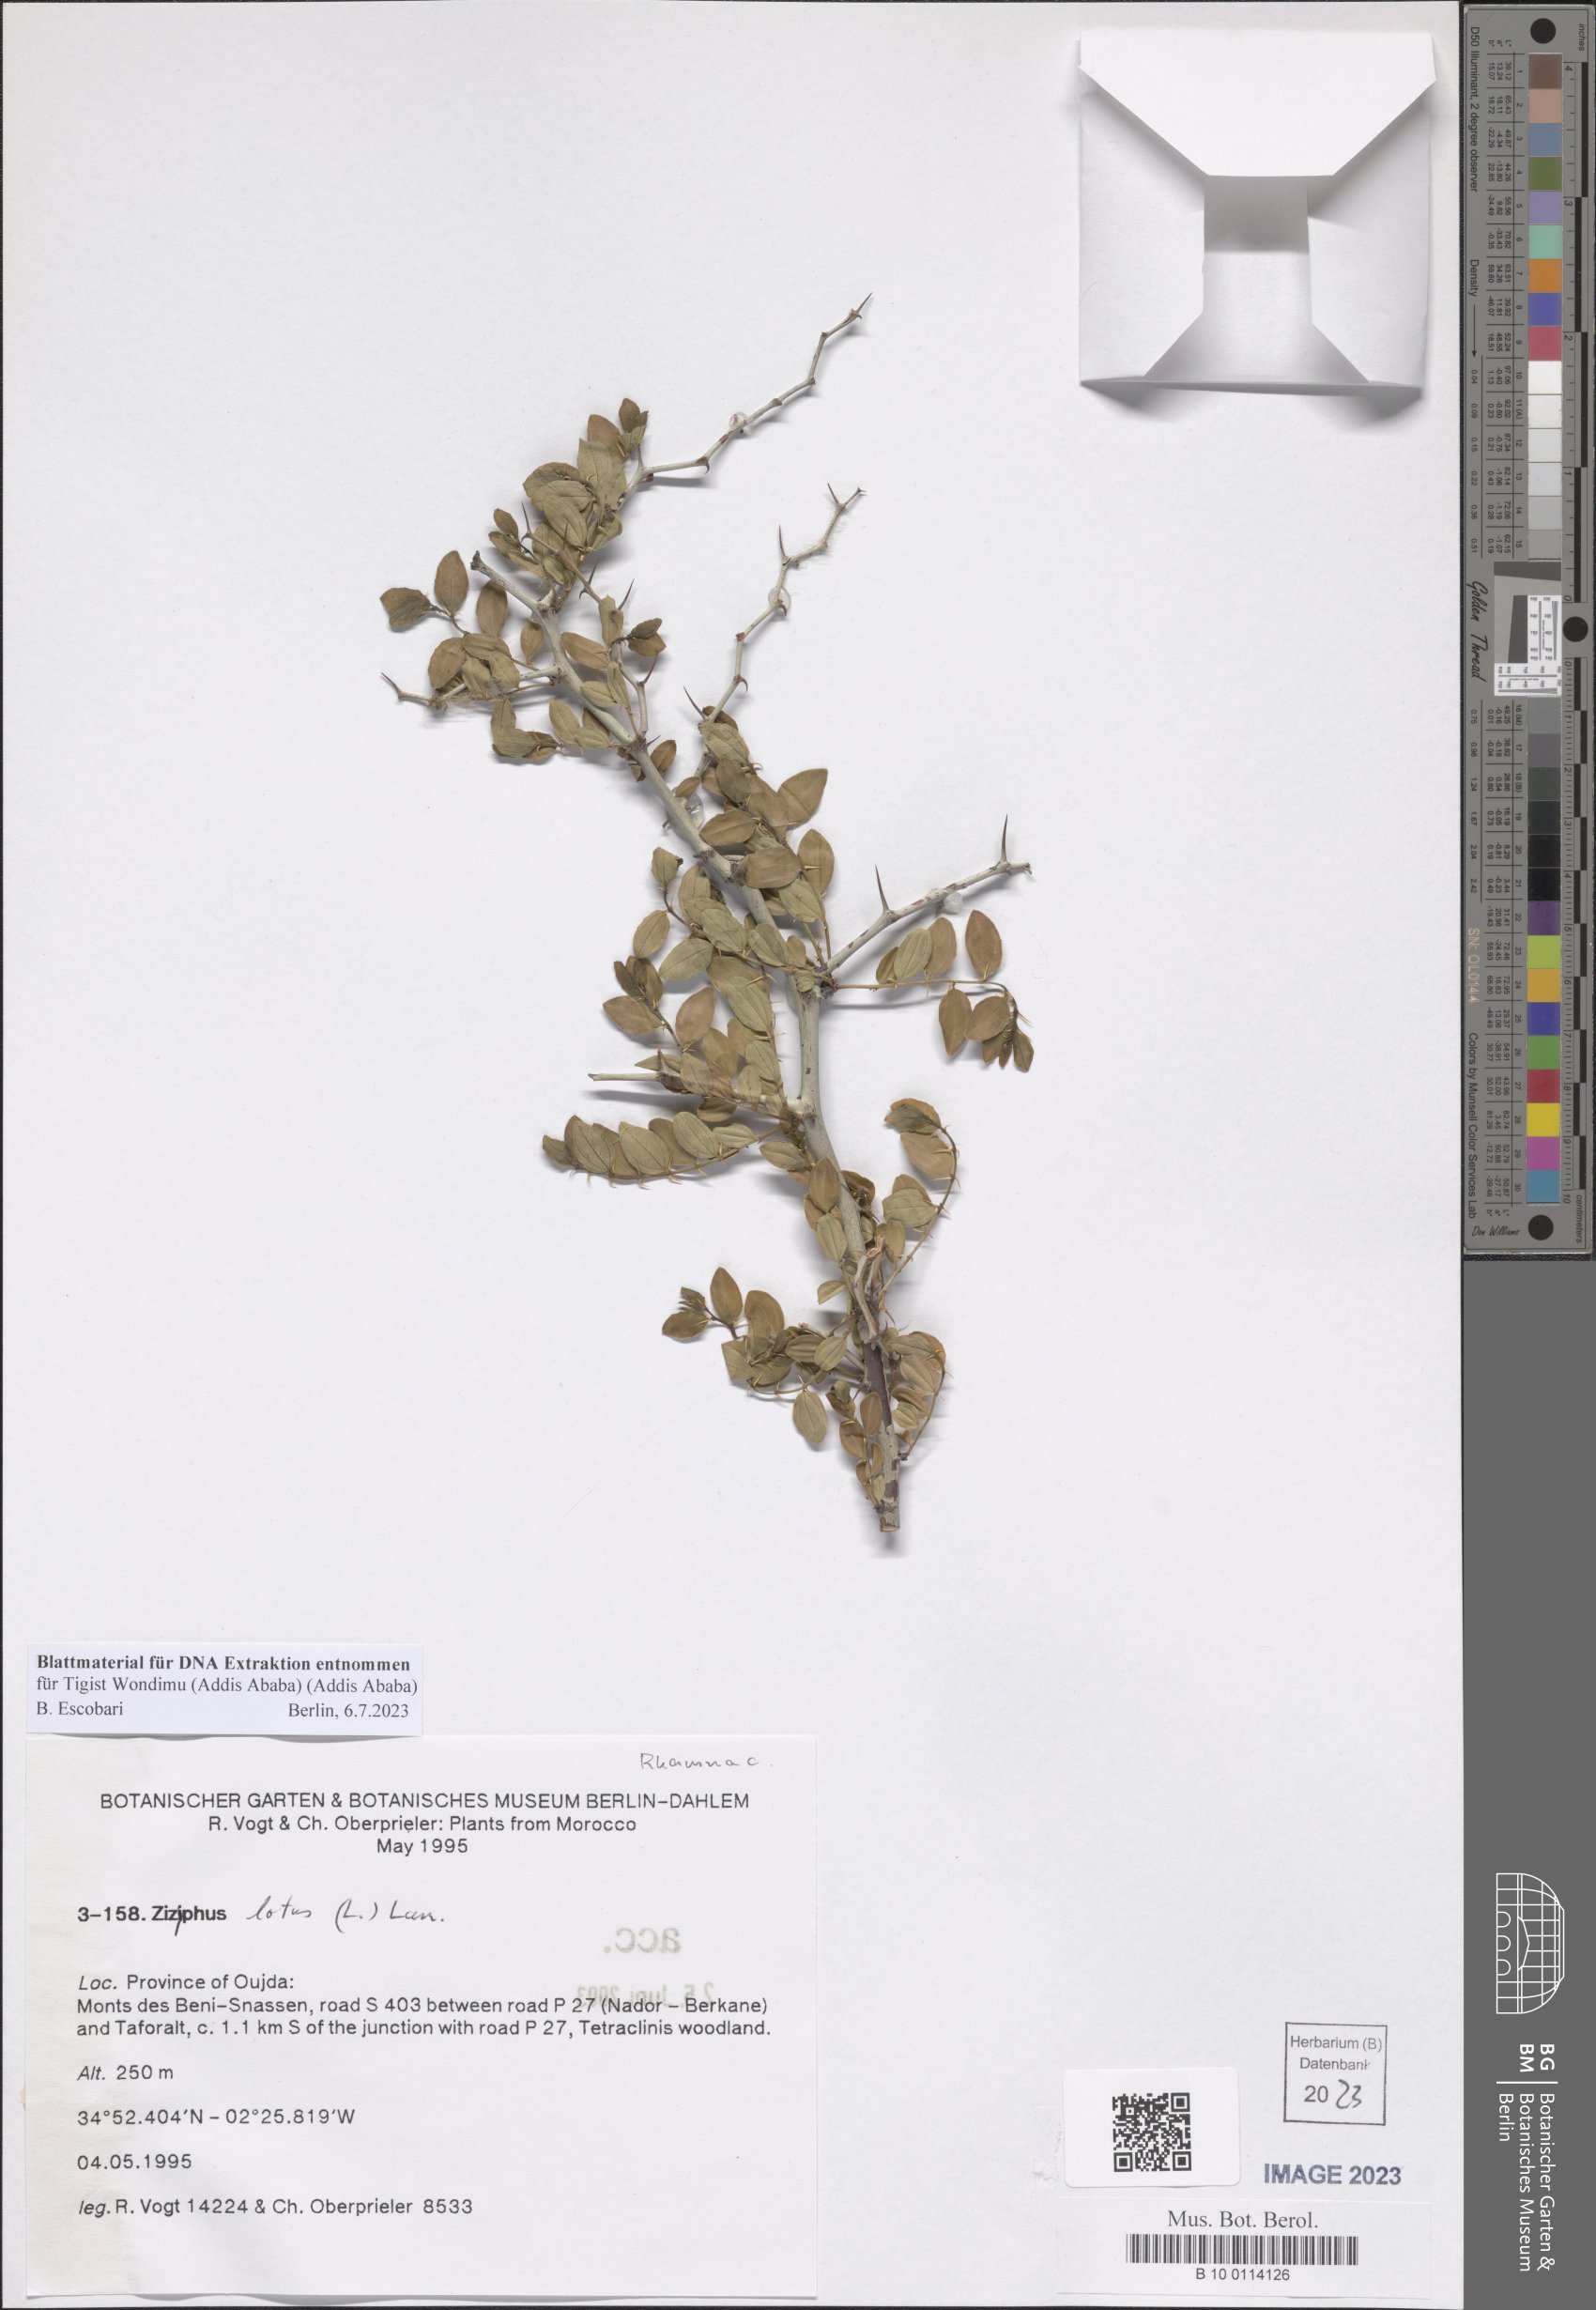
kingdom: Plantae
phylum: Tracheophyta
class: Magnoliopsida
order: Rosales
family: Rhamnaceae
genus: Ziziphus
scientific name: Ziziphus lotus
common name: Lotus
